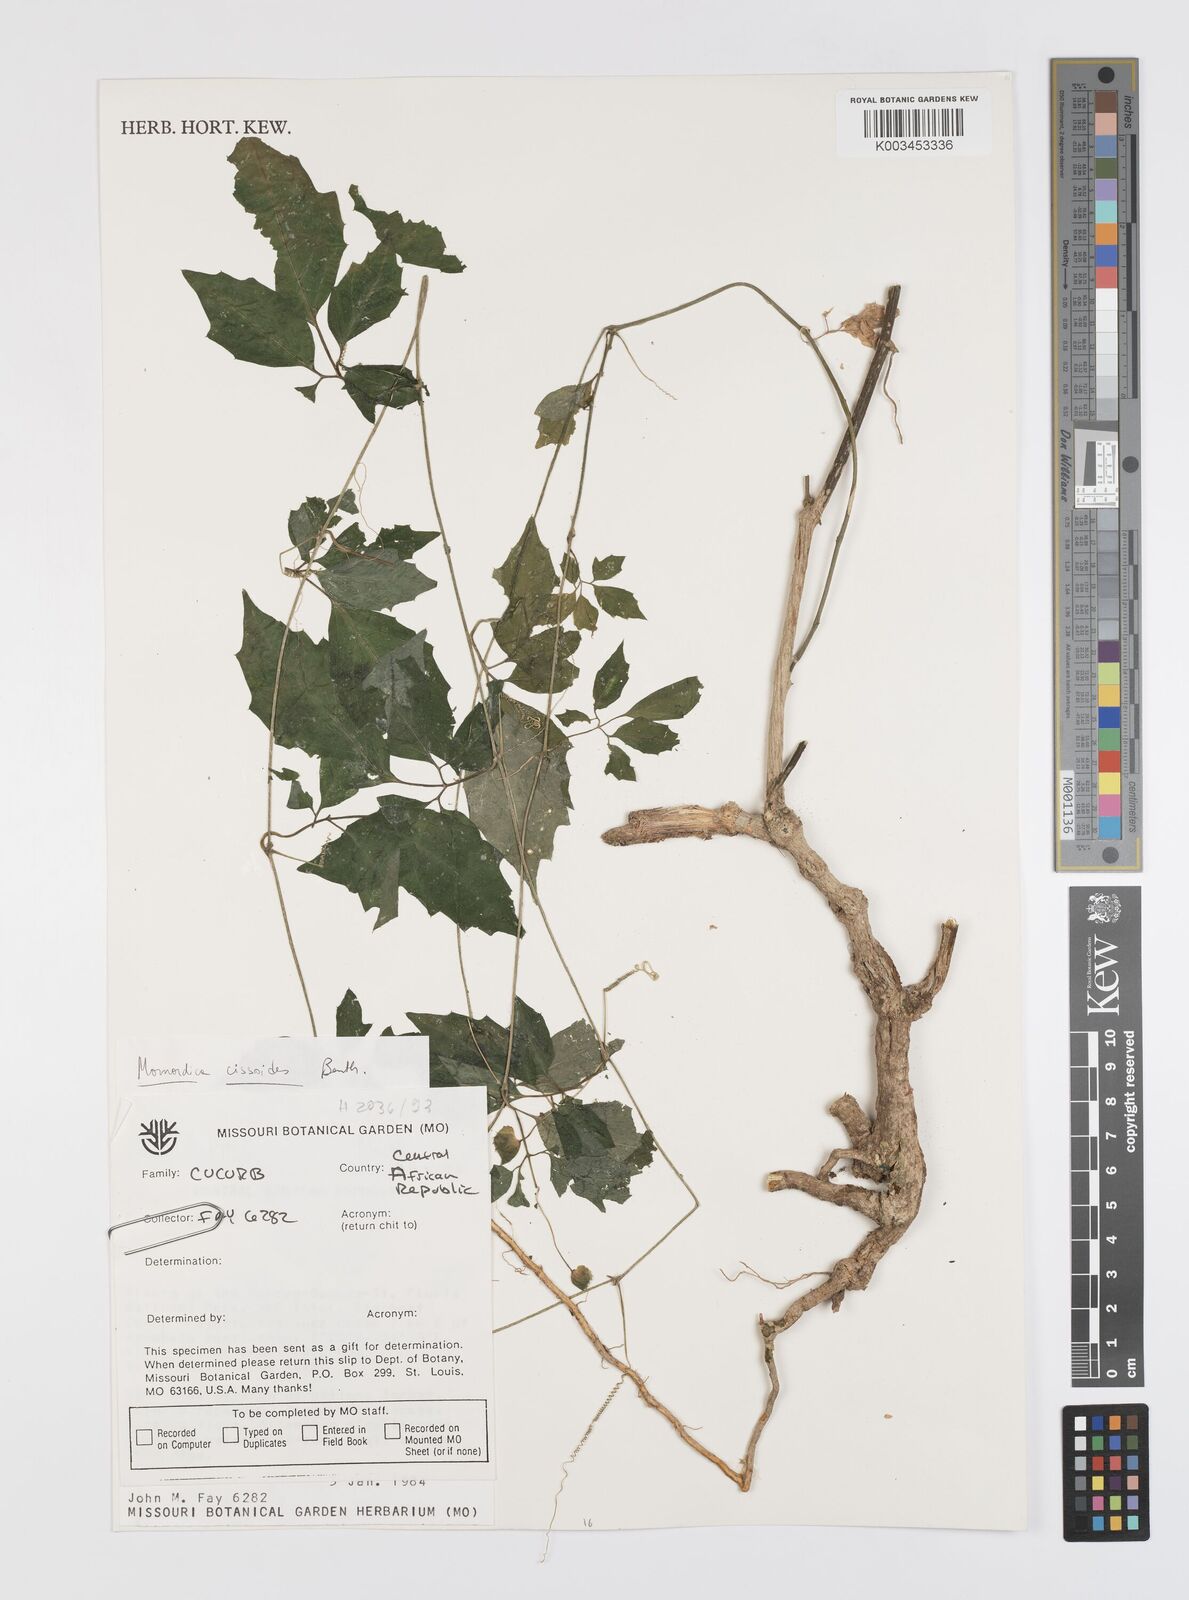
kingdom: Plantae
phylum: Tracheophyta
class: Magnoliopsida
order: Cucurbitales
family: Cucurbitaceae
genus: Momordica
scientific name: Momordica cissoides
